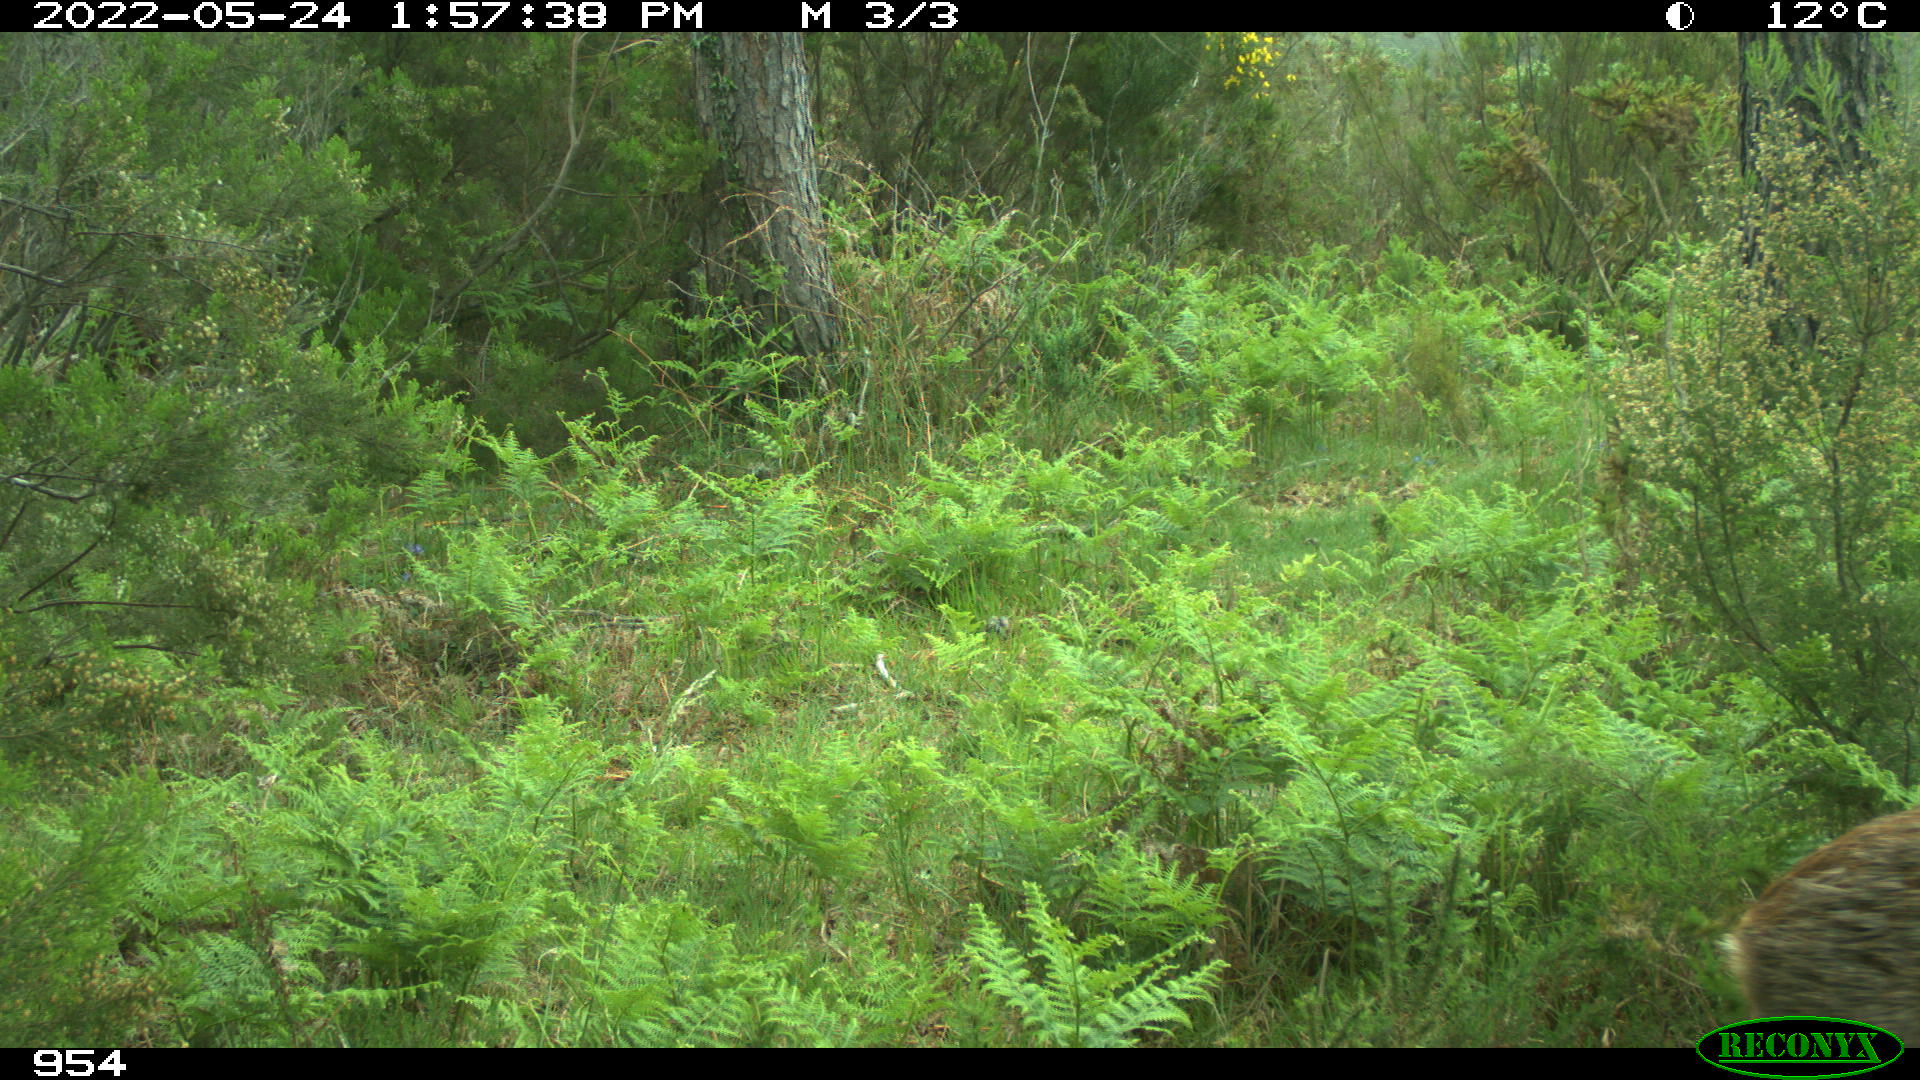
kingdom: Animalia
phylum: Chordata
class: Mammalia
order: Artiodactyla
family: Cervidae
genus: Capreolus
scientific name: Capreolus capreolus
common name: Western roe deer
